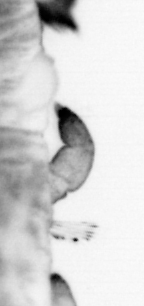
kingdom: Animalia
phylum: Annelida
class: Polychaeta
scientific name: Polychaeta
